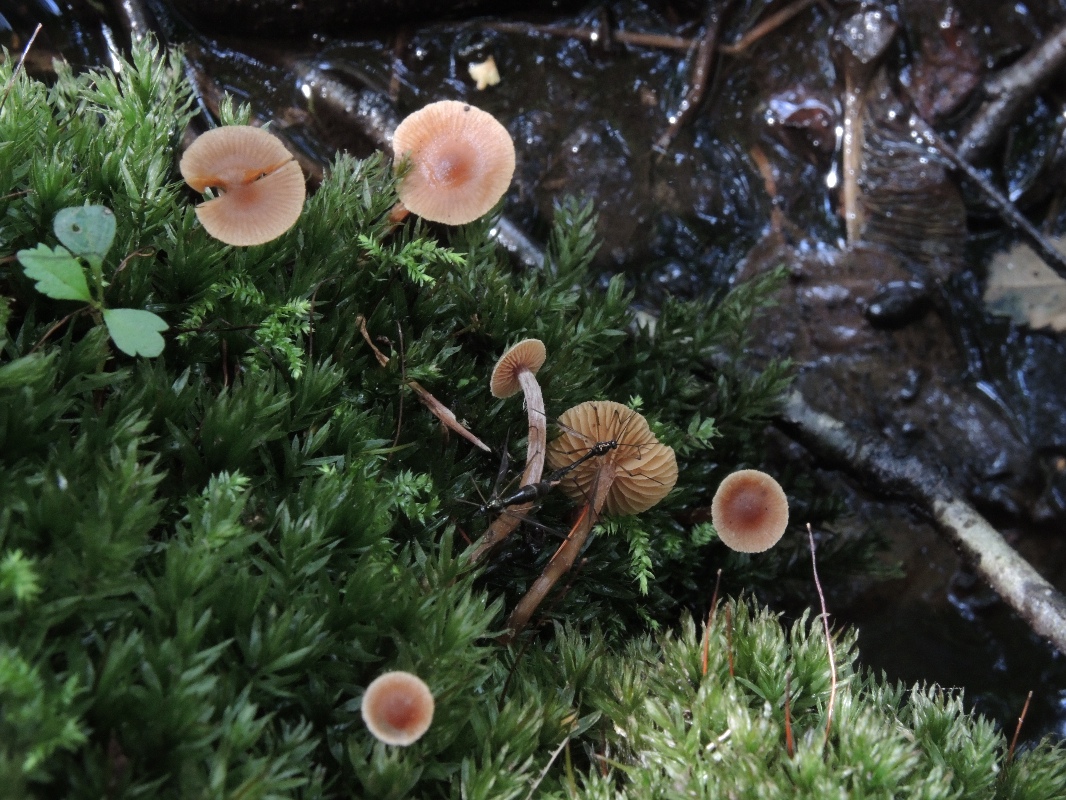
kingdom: Fungi
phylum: Basidiomycota
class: Agaricomycetes
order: Agaricales
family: Hymenogastraceae
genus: Naucoria
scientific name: Naucoria scolecina
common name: mørk elle-knaphat
